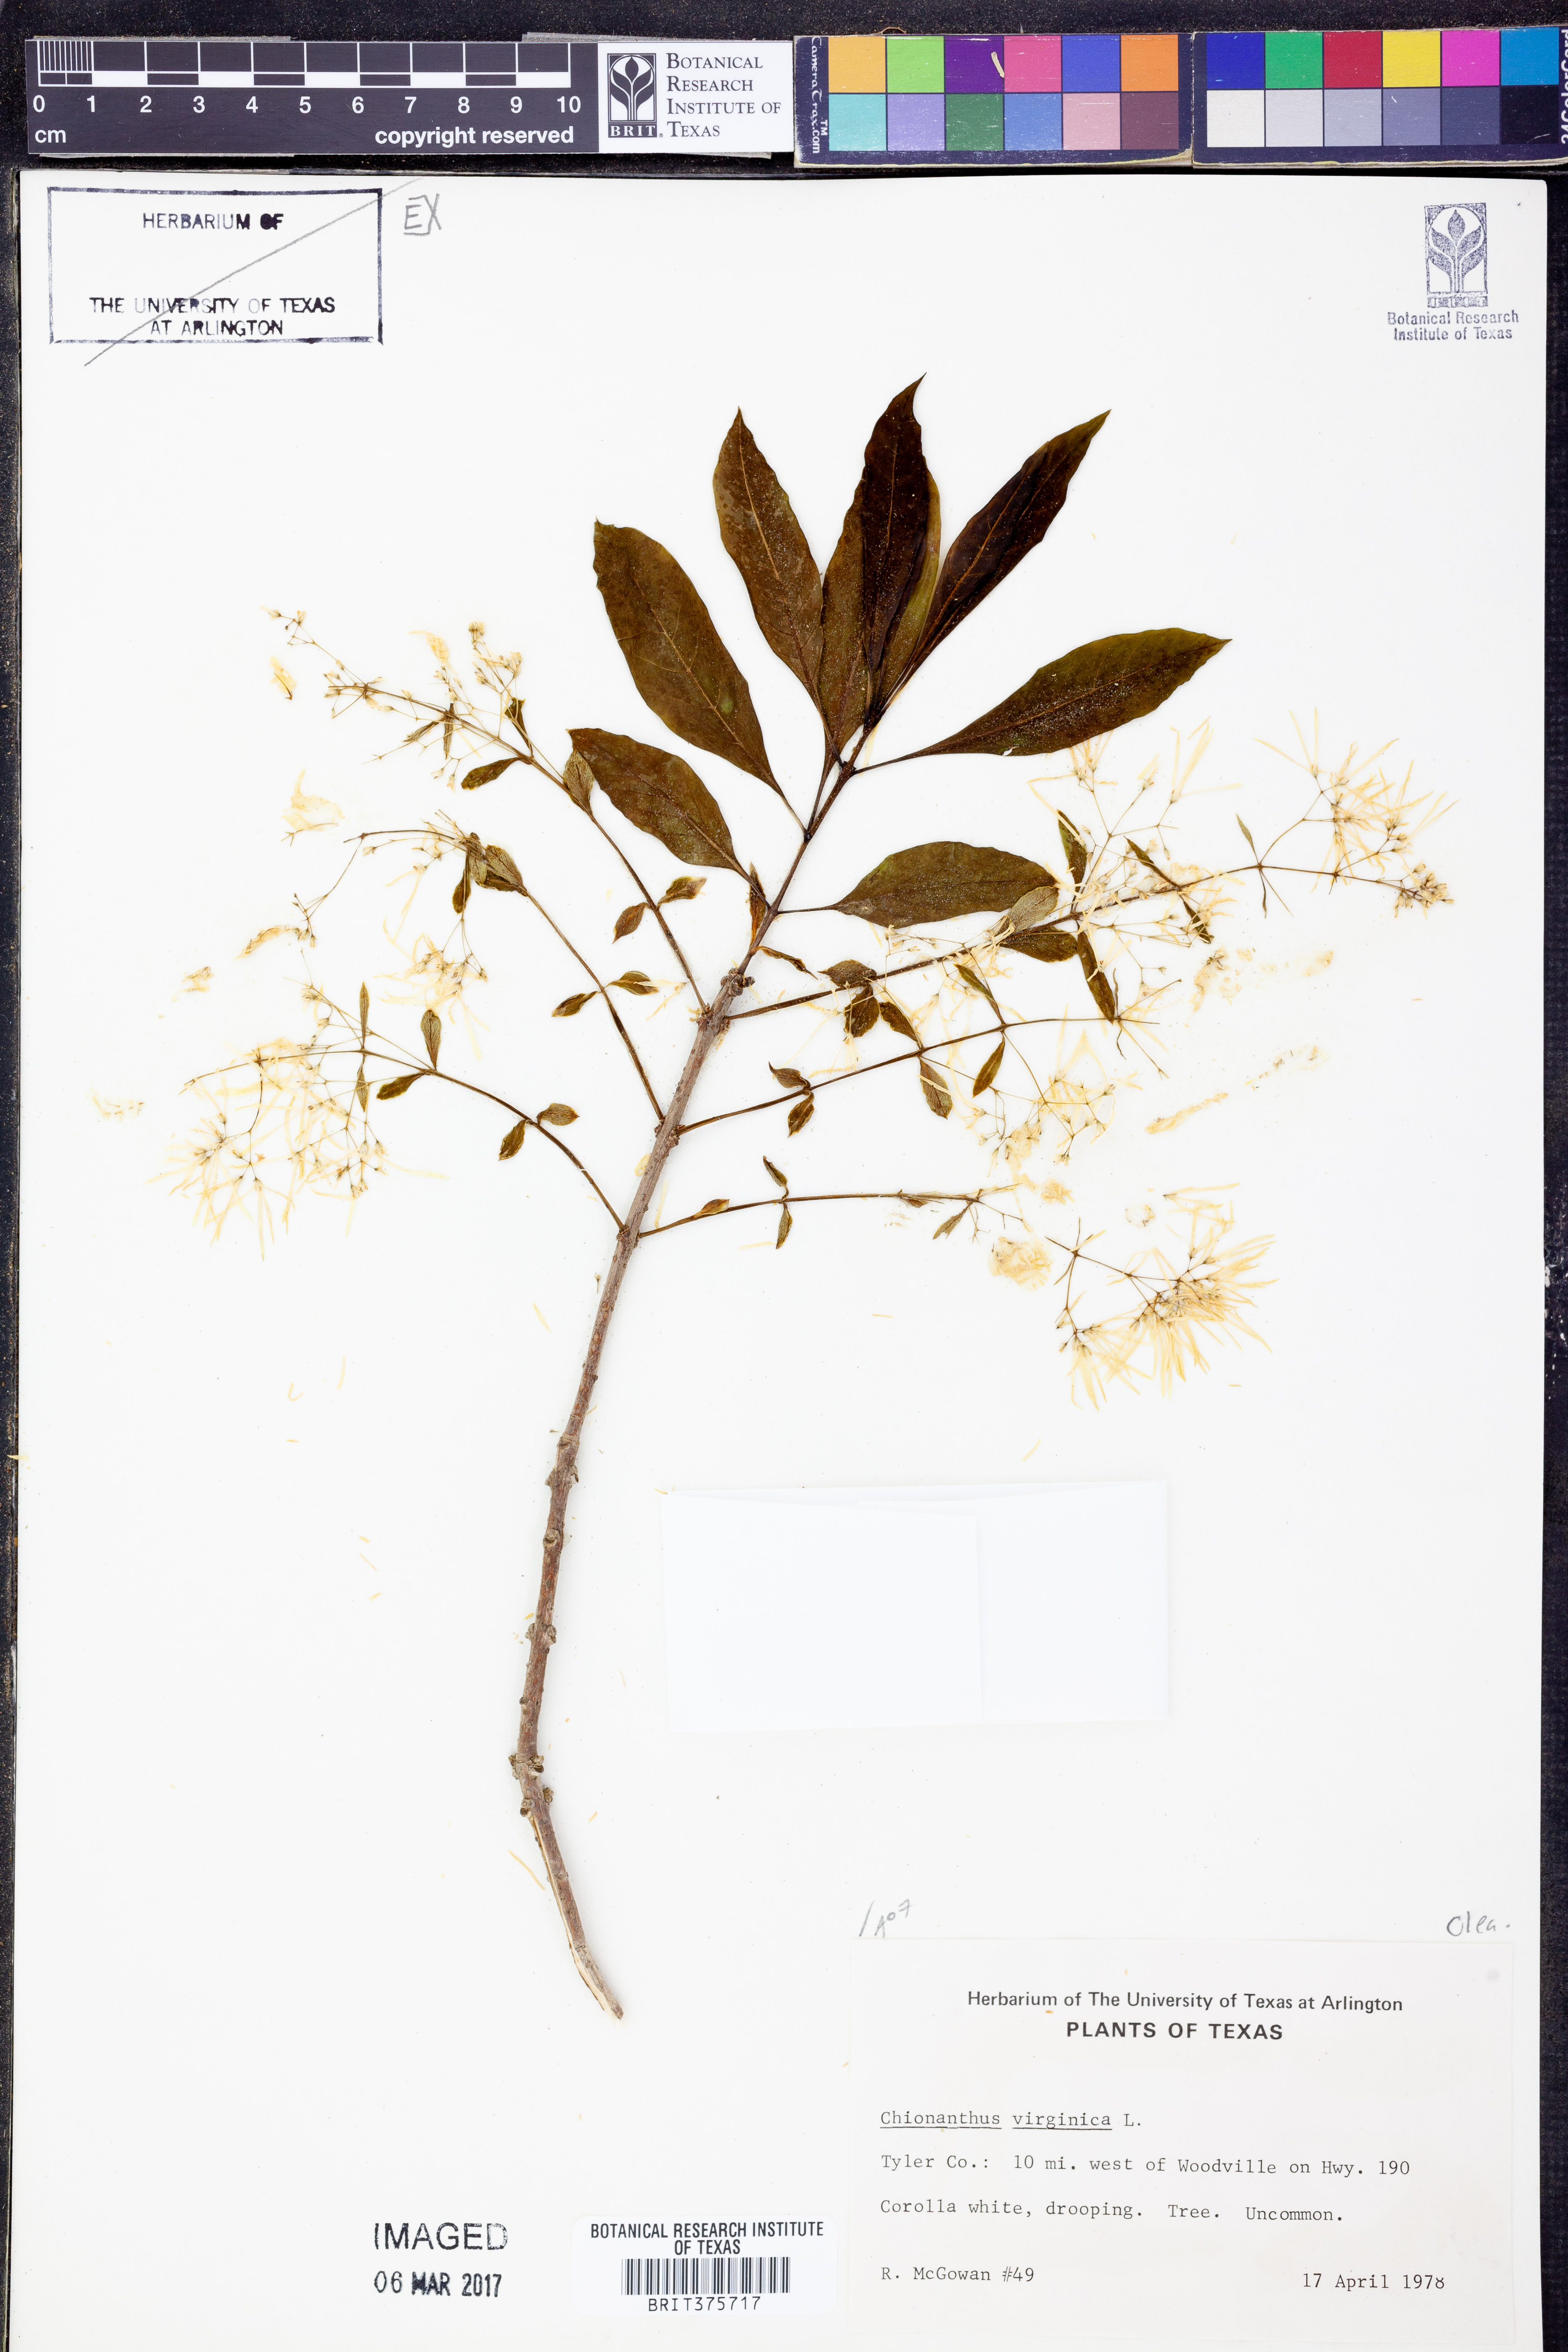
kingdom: Plantae
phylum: Tracheophyta
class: Magnoliopsida
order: Lamiales
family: Oleaceae
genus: Chionanthus
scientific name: Chionanthus virginicus
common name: American fringetree
